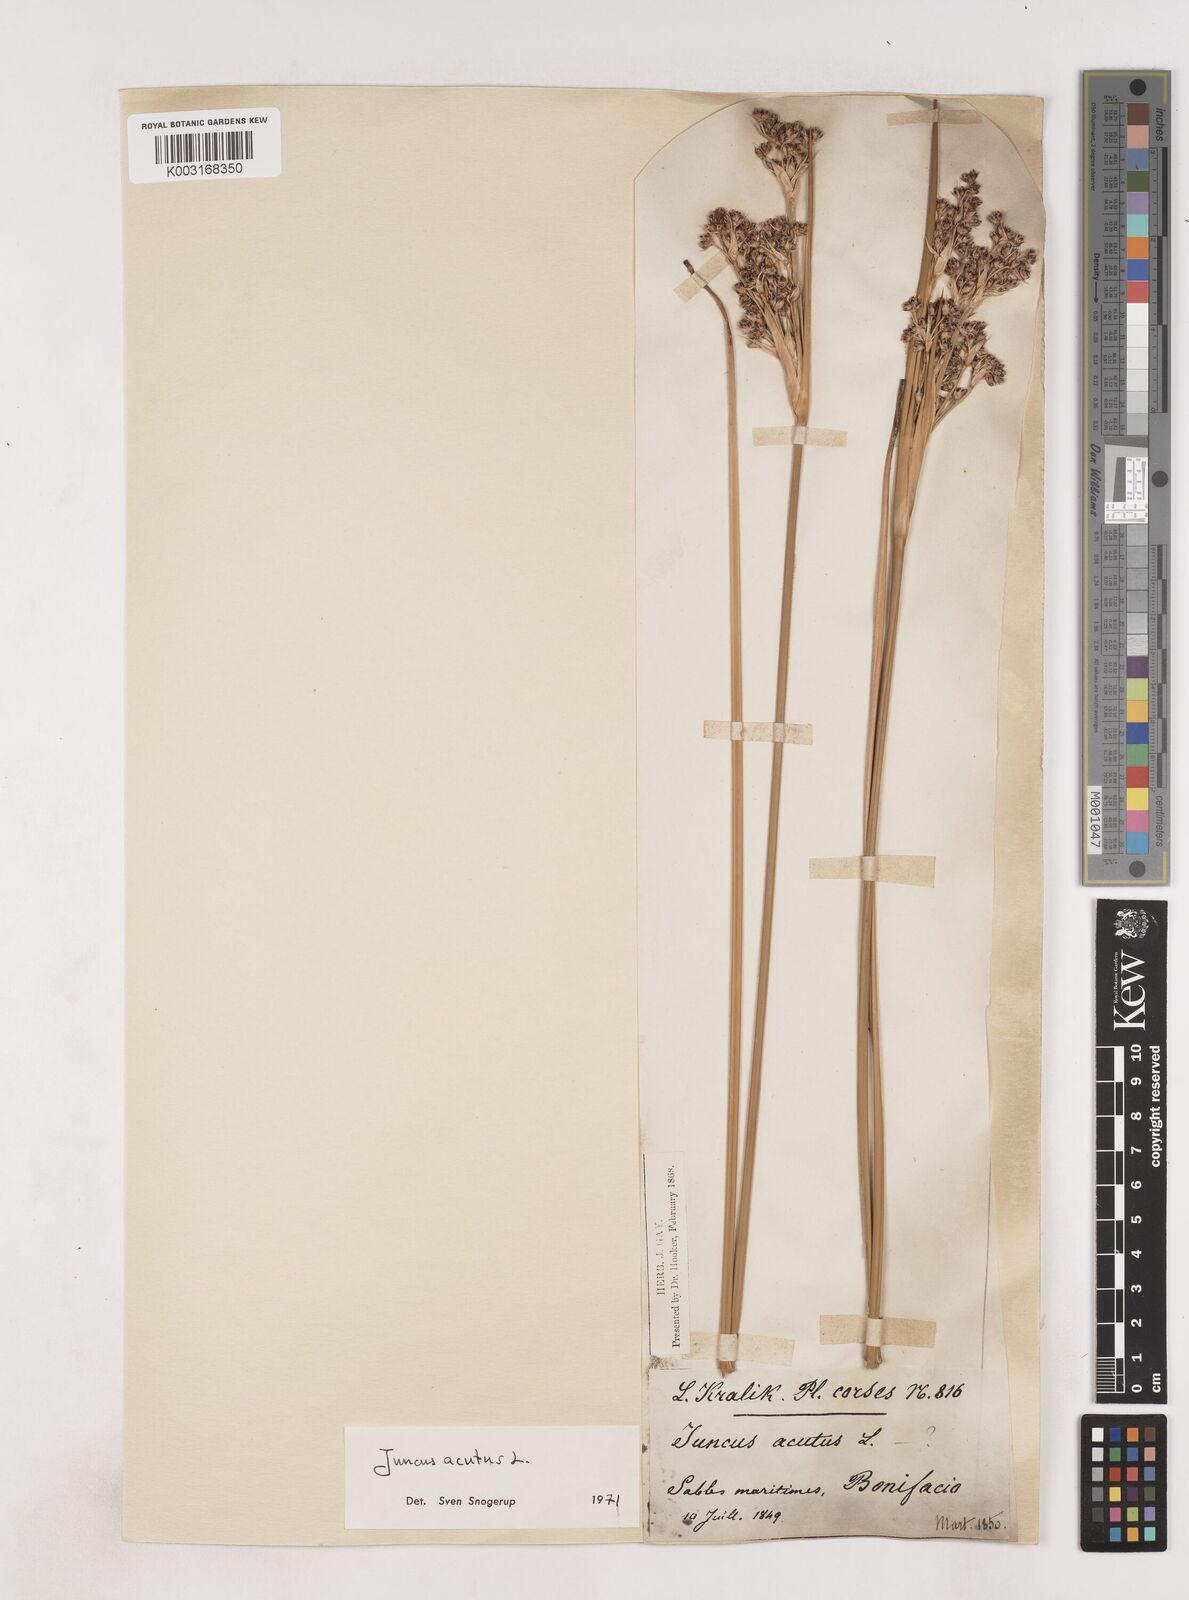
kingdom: Plantae
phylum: Tracheophyta
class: Liliopsida
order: Poales
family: Juncaceae
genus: Juncus
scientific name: Juncus acutus
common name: Sharp rush
